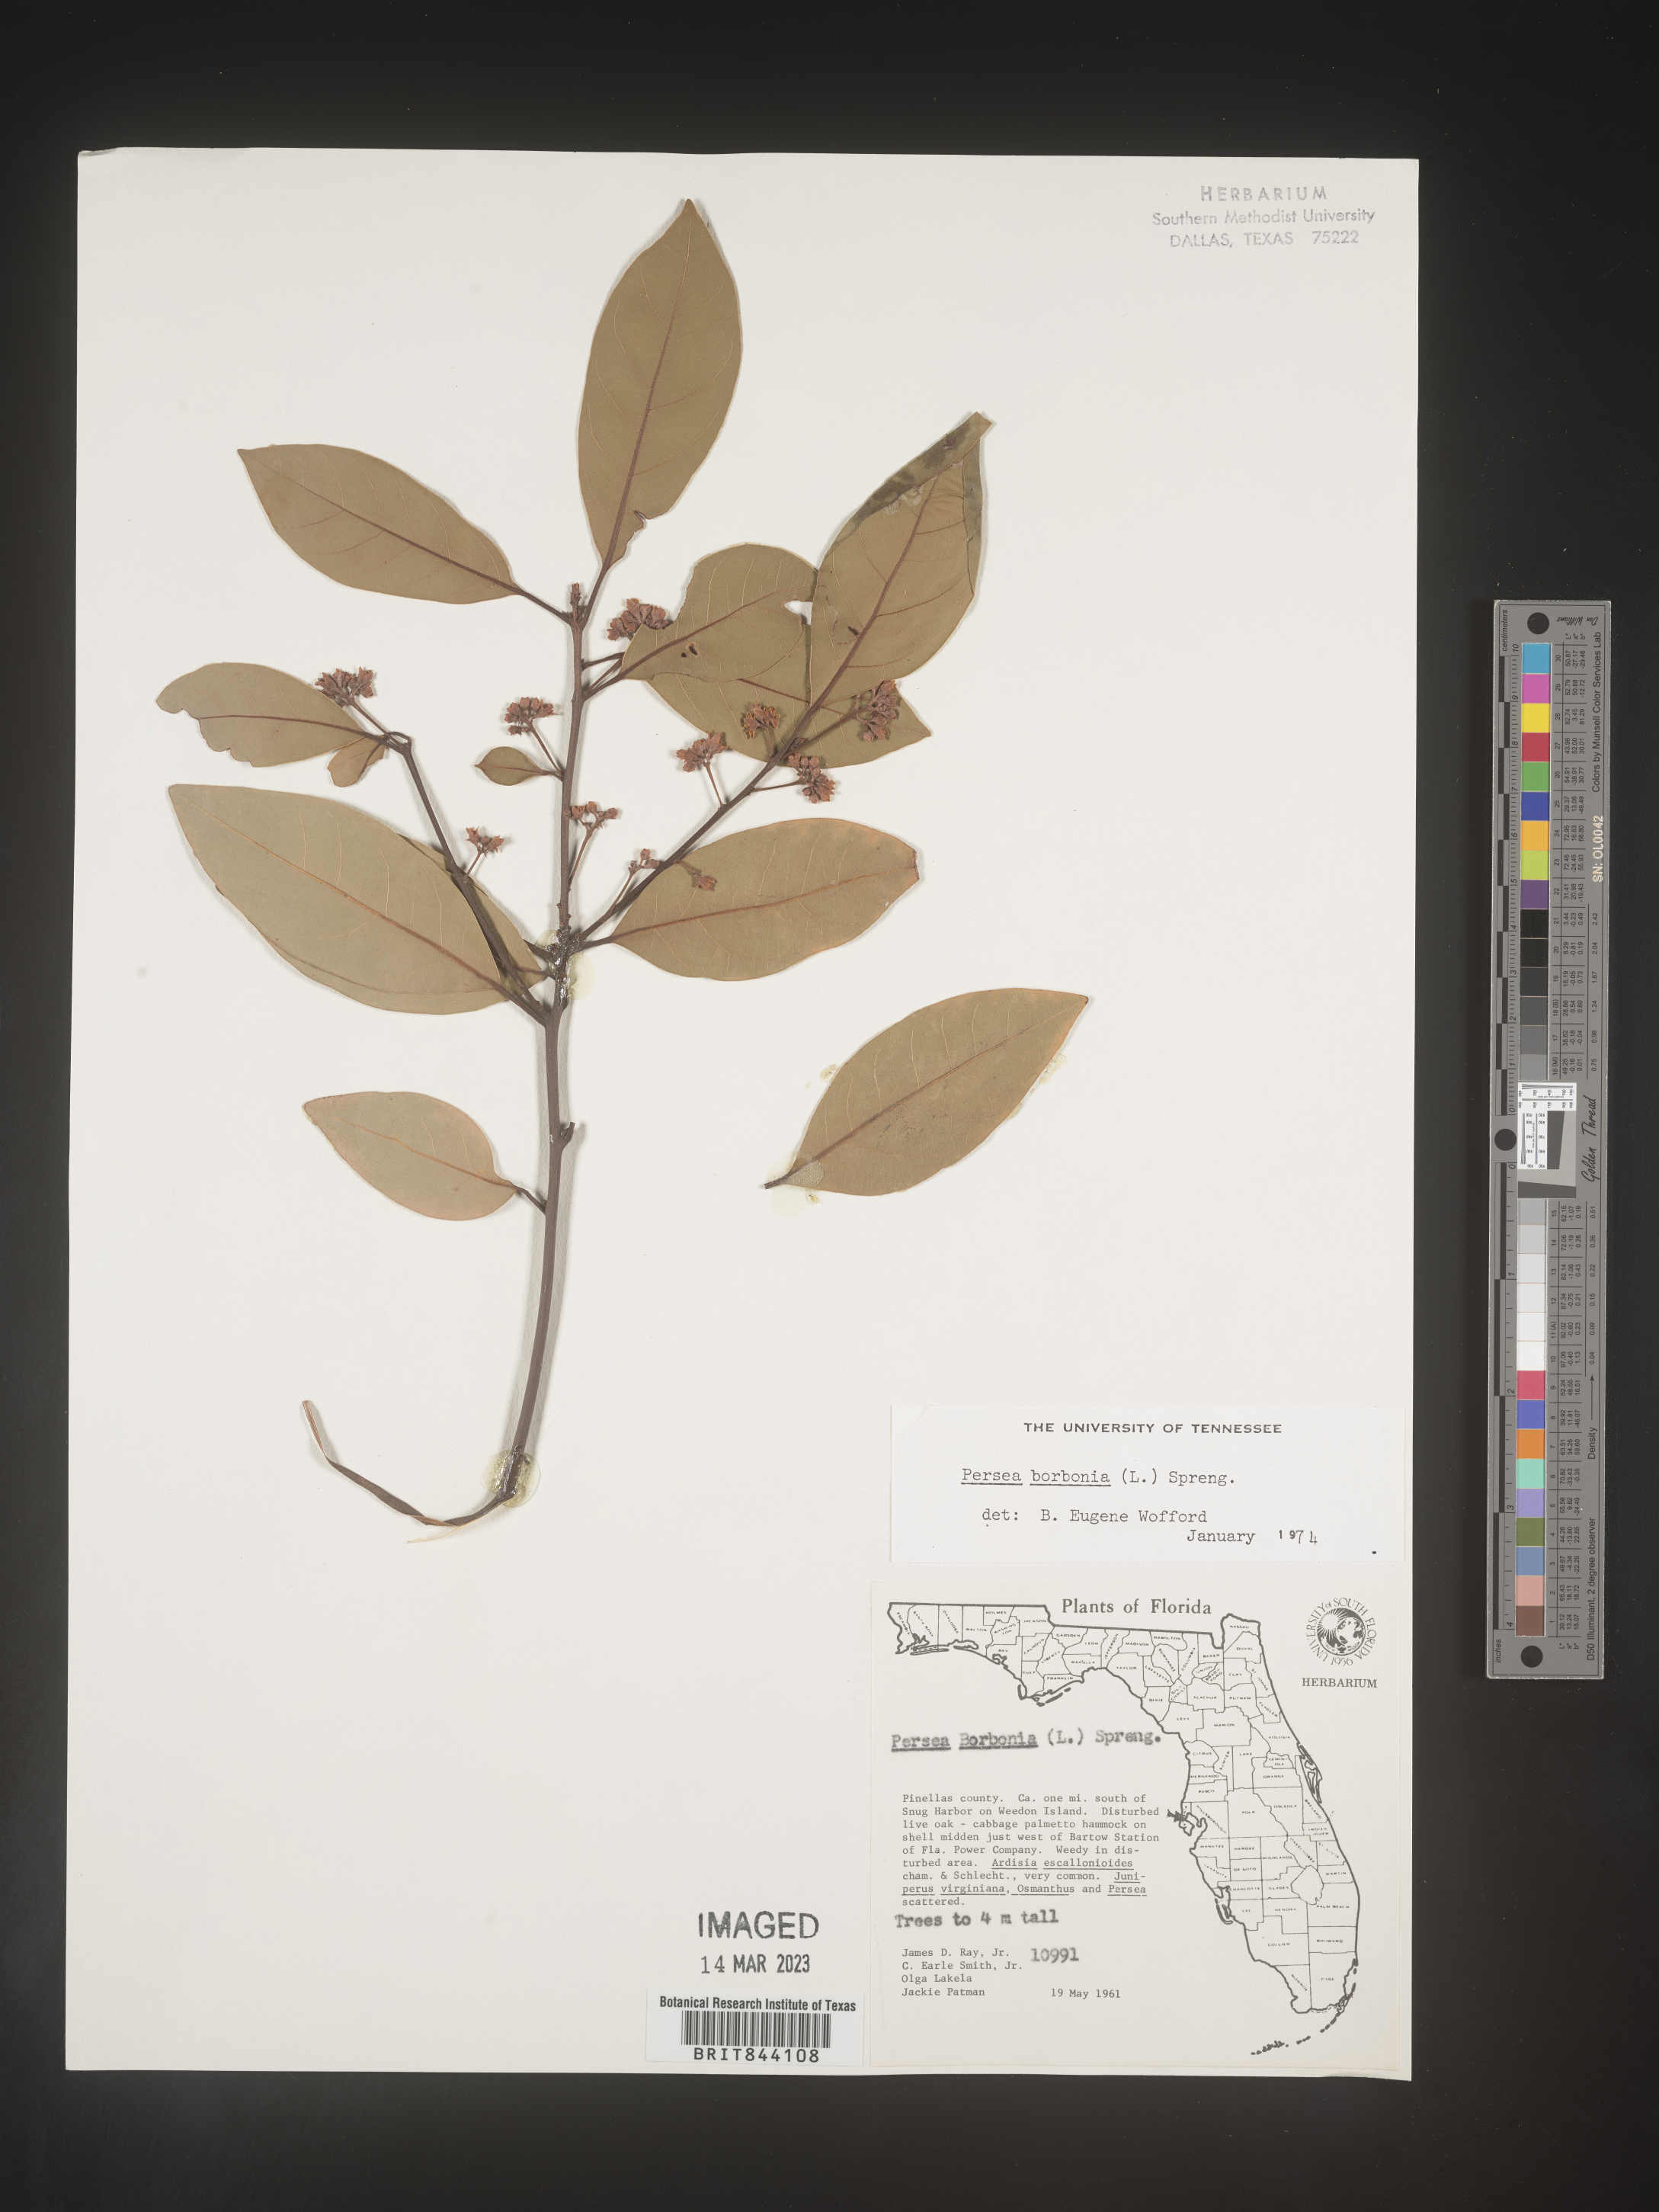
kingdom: Plantae
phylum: Tracheophyta
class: Magnoliopsida
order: Laurales
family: Lauraceae
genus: Persea
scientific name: Persea borbonia
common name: Redbay
